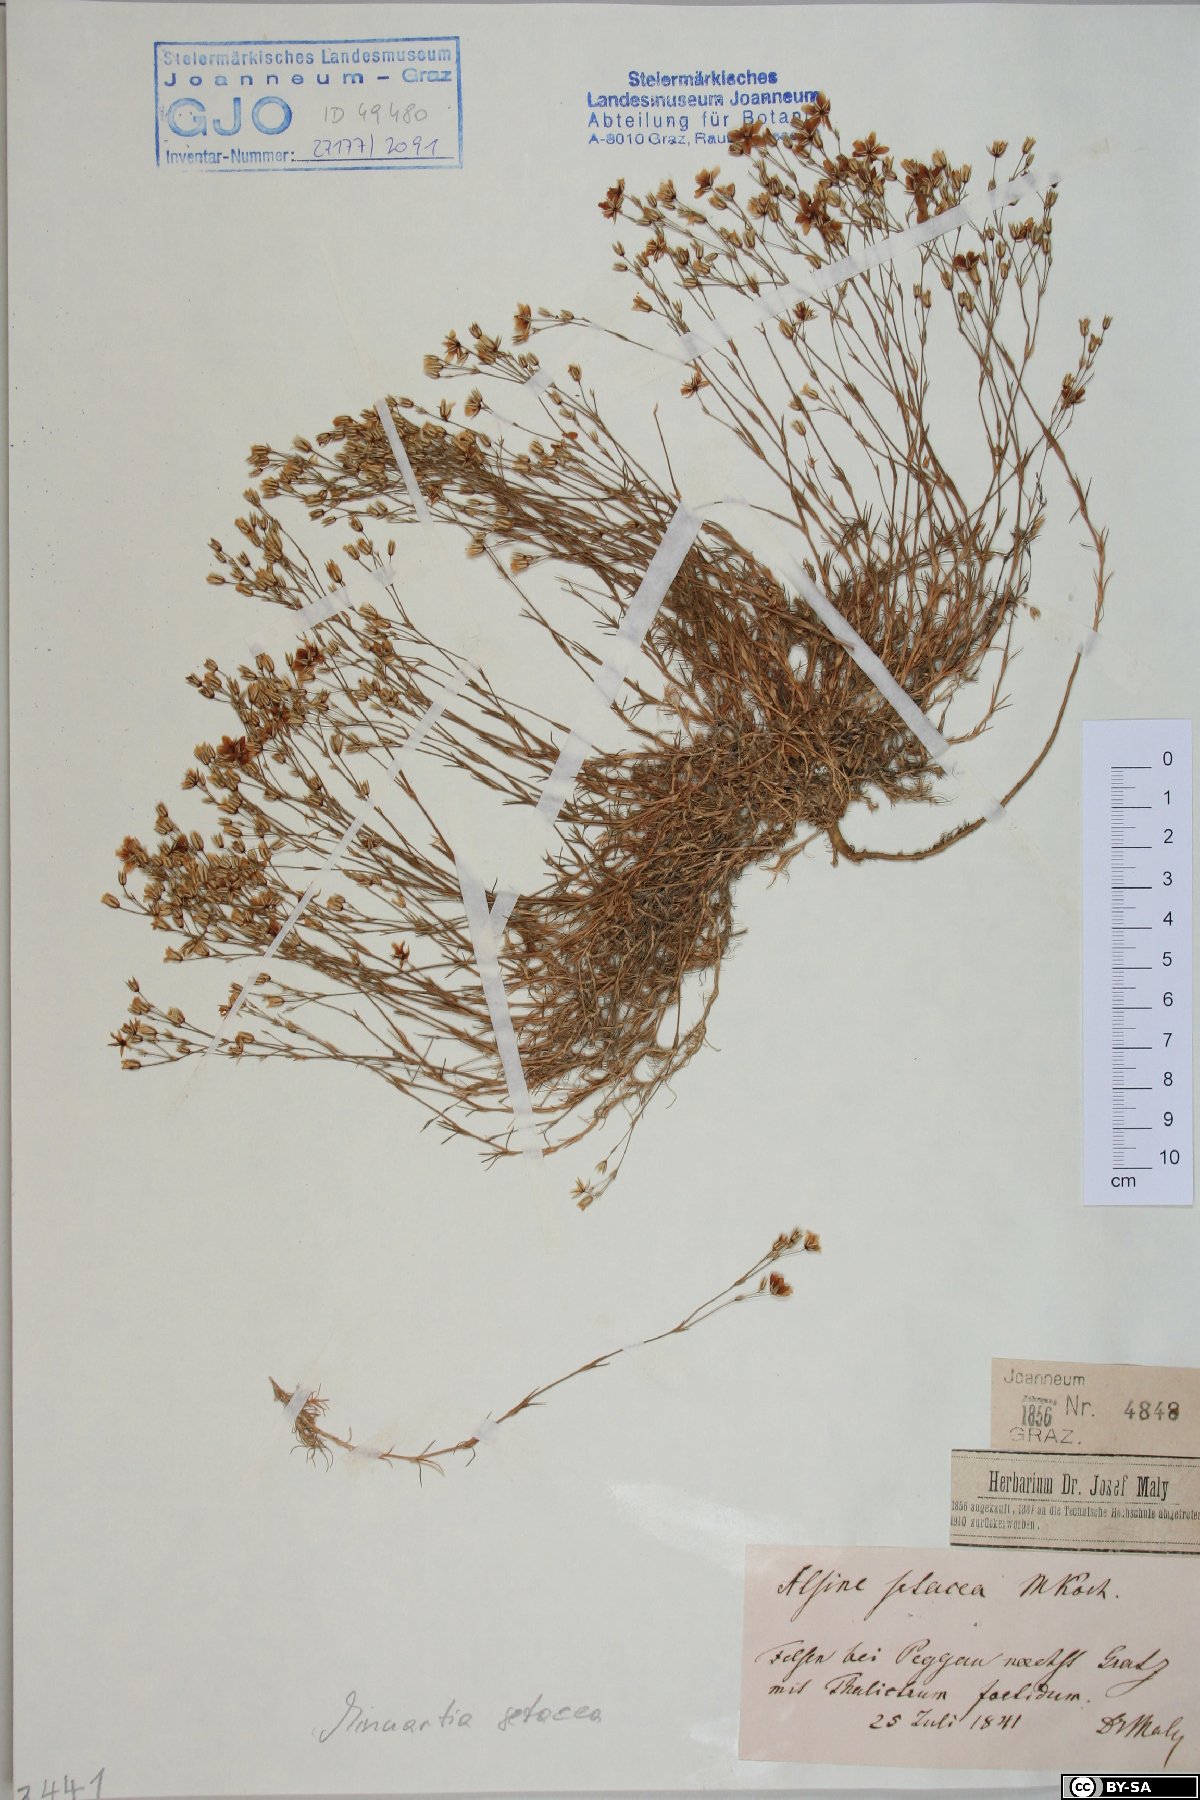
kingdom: Plantae
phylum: Tracheophyta
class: Magnoliopsida
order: Caryophyllales
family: Caryophyllaceae
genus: Minuartia
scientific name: Minuartia setacea
